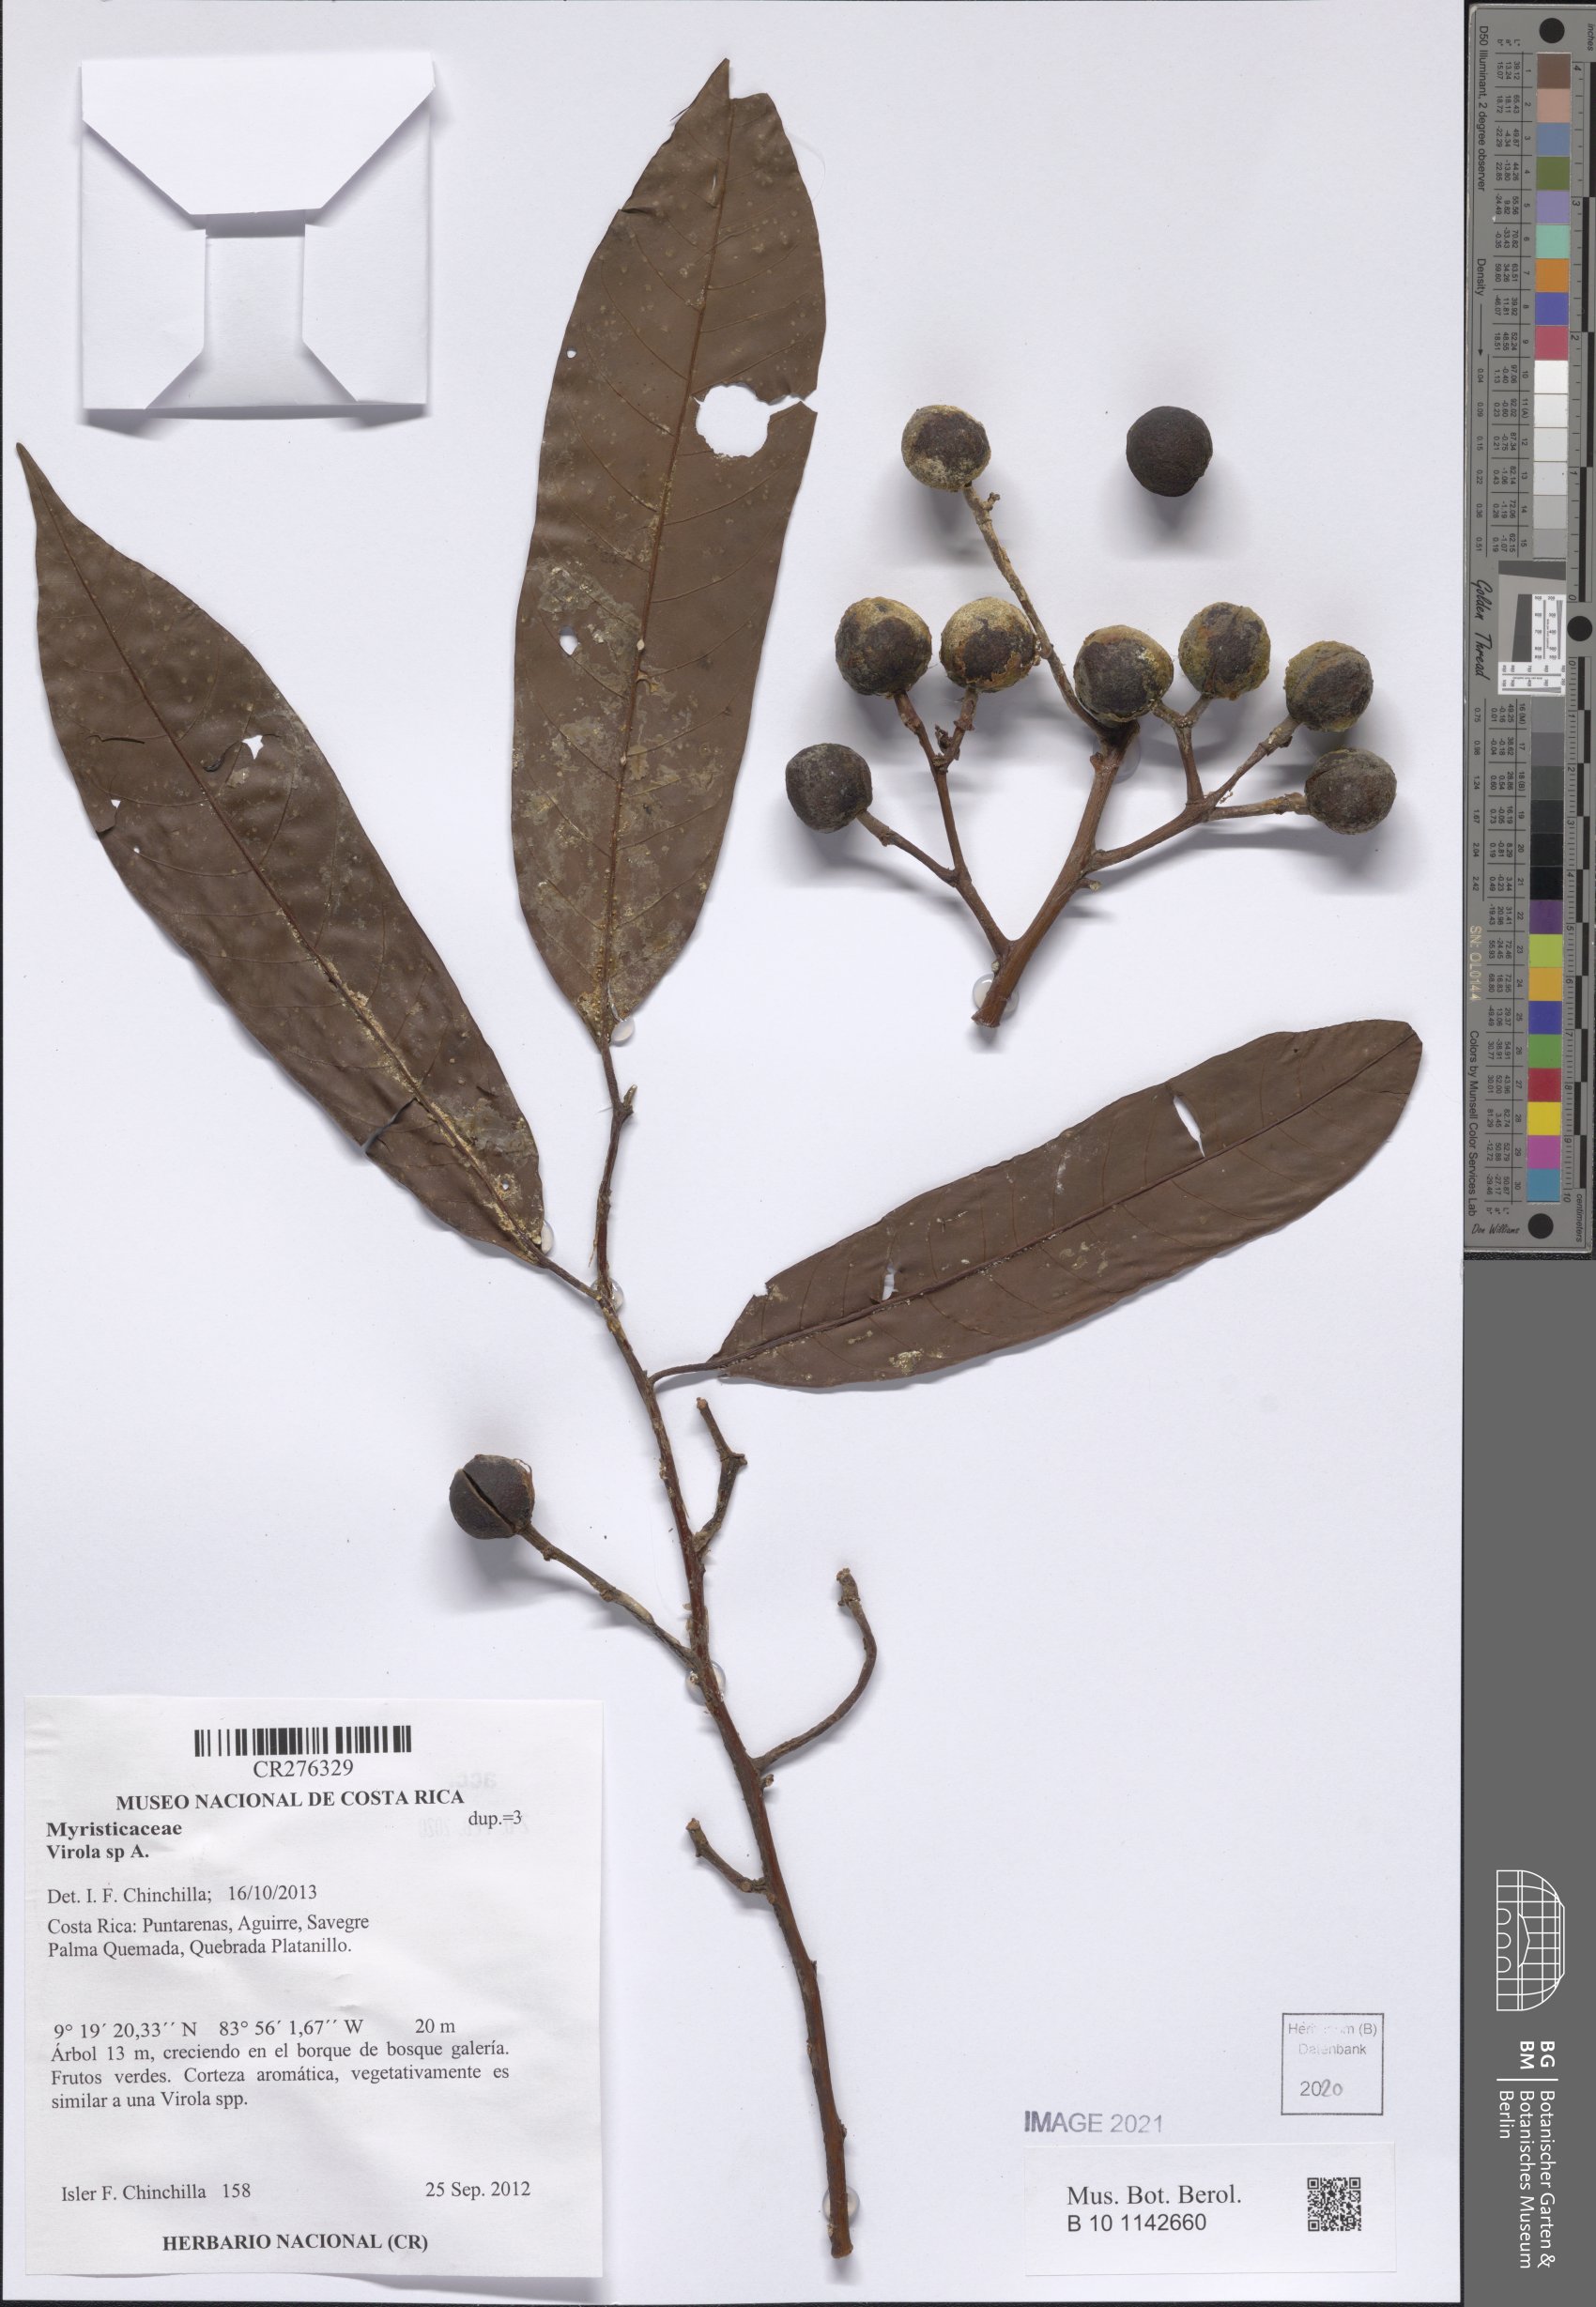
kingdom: Plantae
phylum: Tracheophyta
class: Magnoliopsida
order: Magnoliales
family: Myristicaceae
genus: Virola
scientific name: Virola guatemalensis
